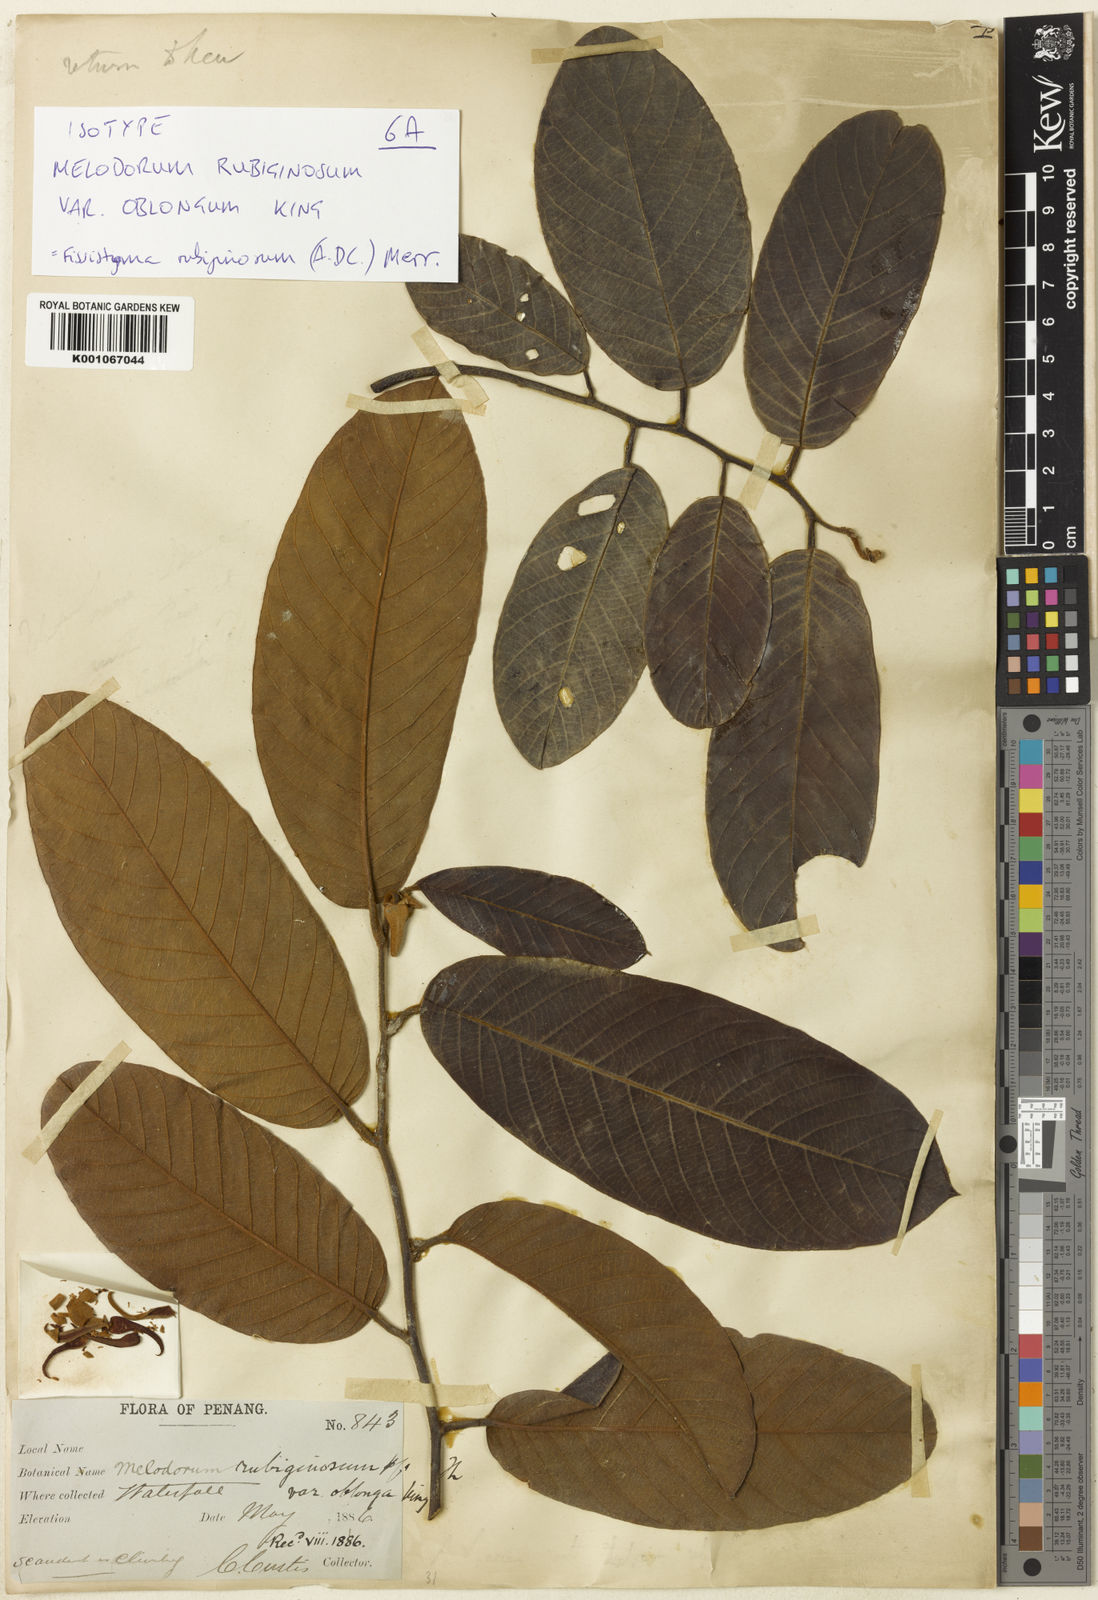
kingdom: Plantae
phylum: Tracheophyta
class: Magnoliopsida
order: Magnoliales
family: Annonaceae
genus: Fissistigma
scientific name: Fissistigma rubiginosum
